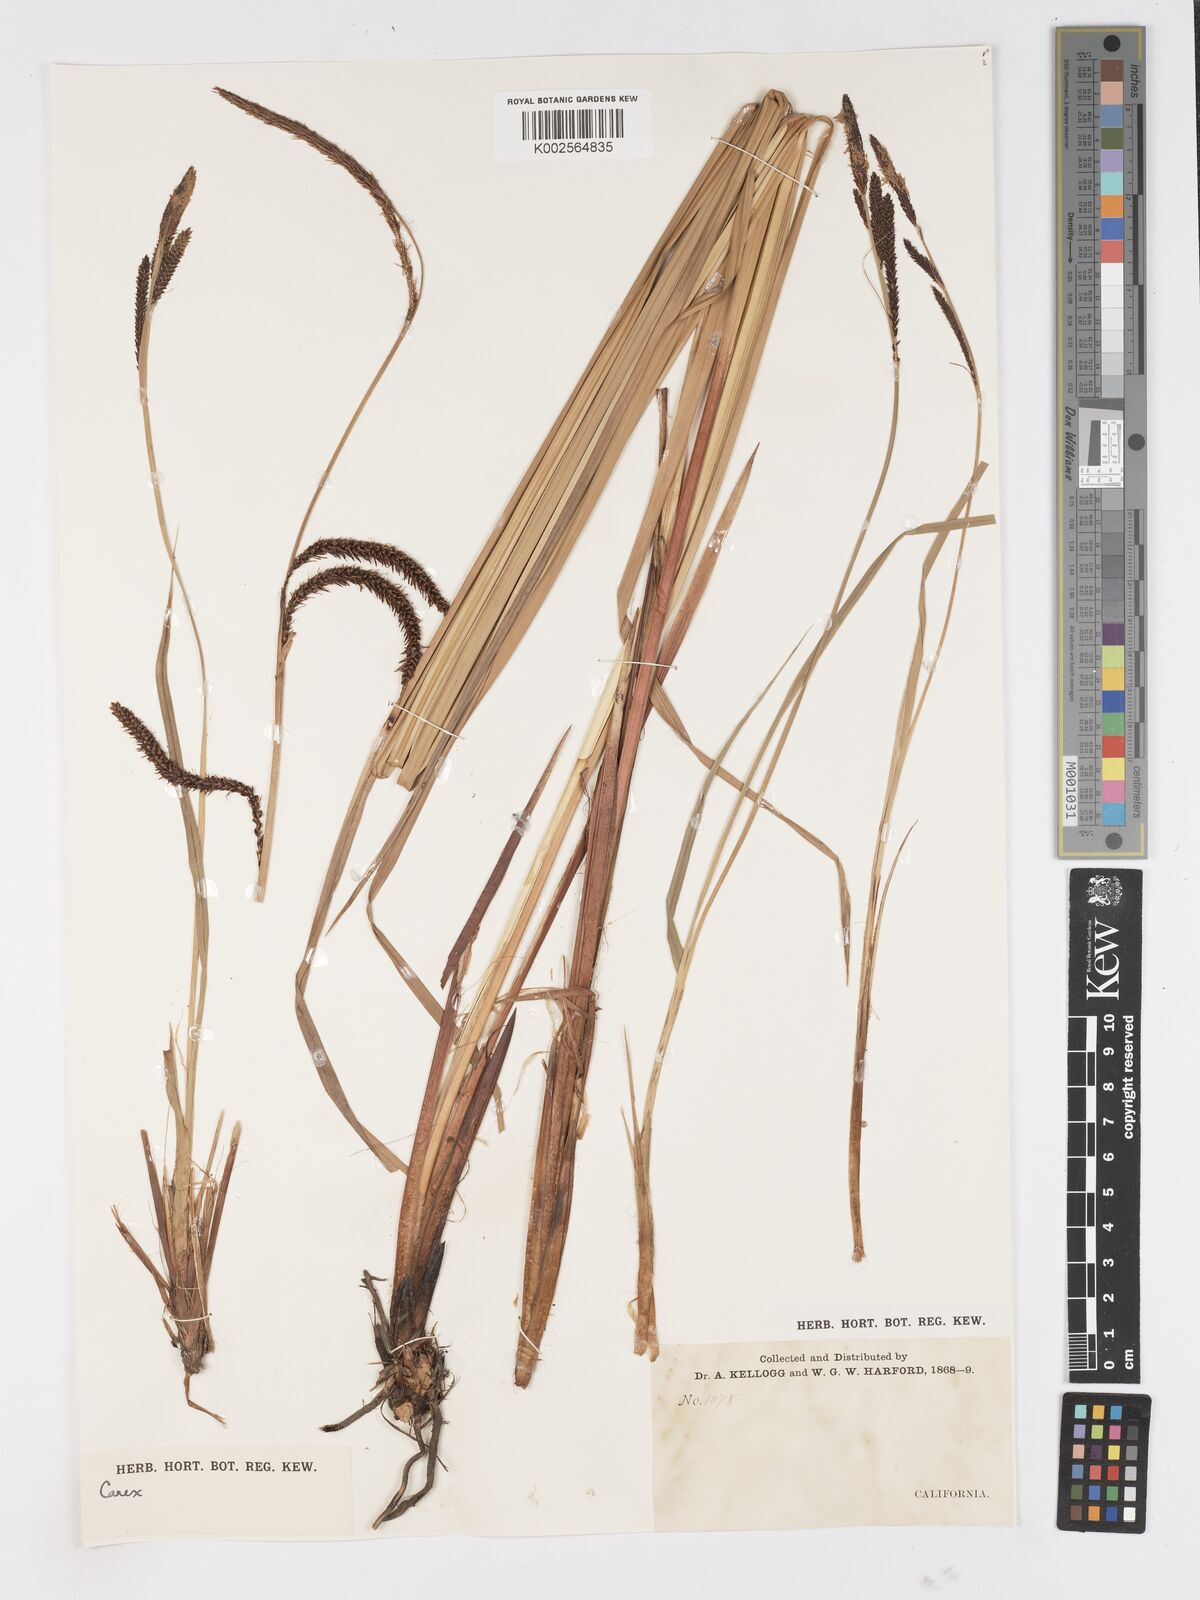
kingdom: Plantae
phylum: Tracheophyta
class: Liliopsida
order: Poales
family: Cyperaceae
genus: Carex
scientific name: Carex
